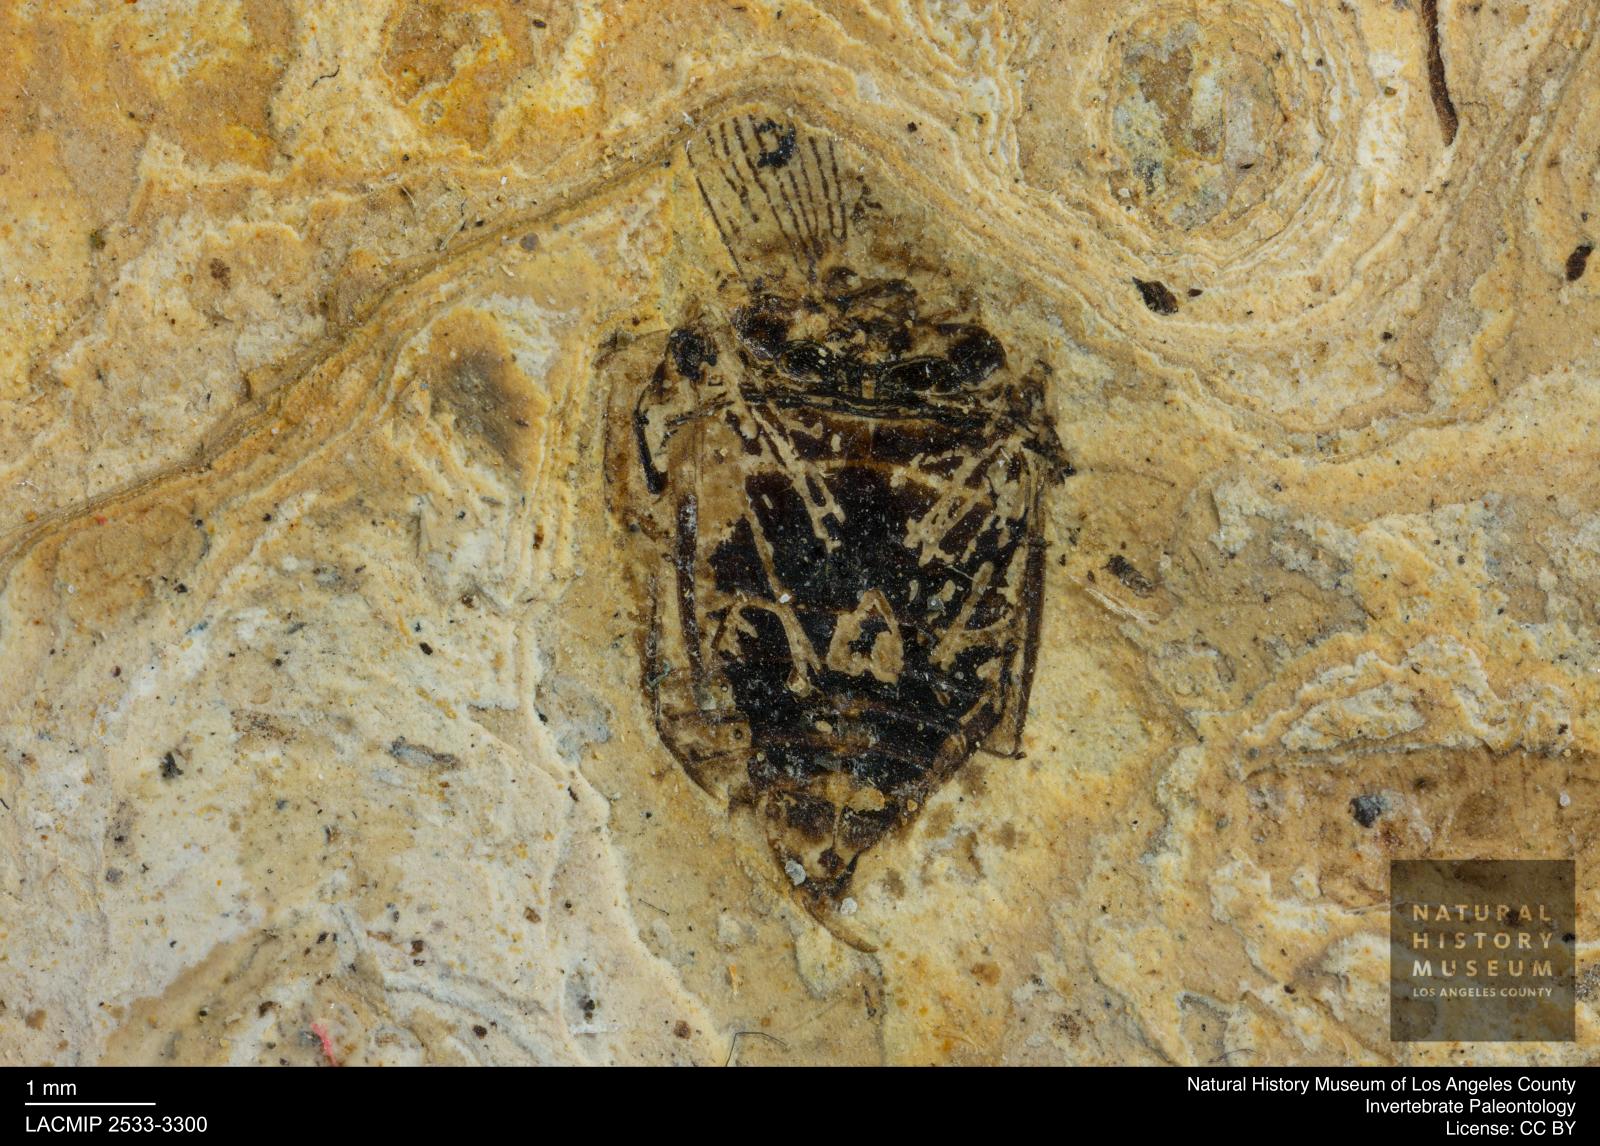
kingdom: Animalia
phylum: Arthropoda
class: Insecta
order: Coleoptera
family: Dytiscidae
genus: Laccophilus
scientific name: Laccophilus Palaeogyrinus strigatus
